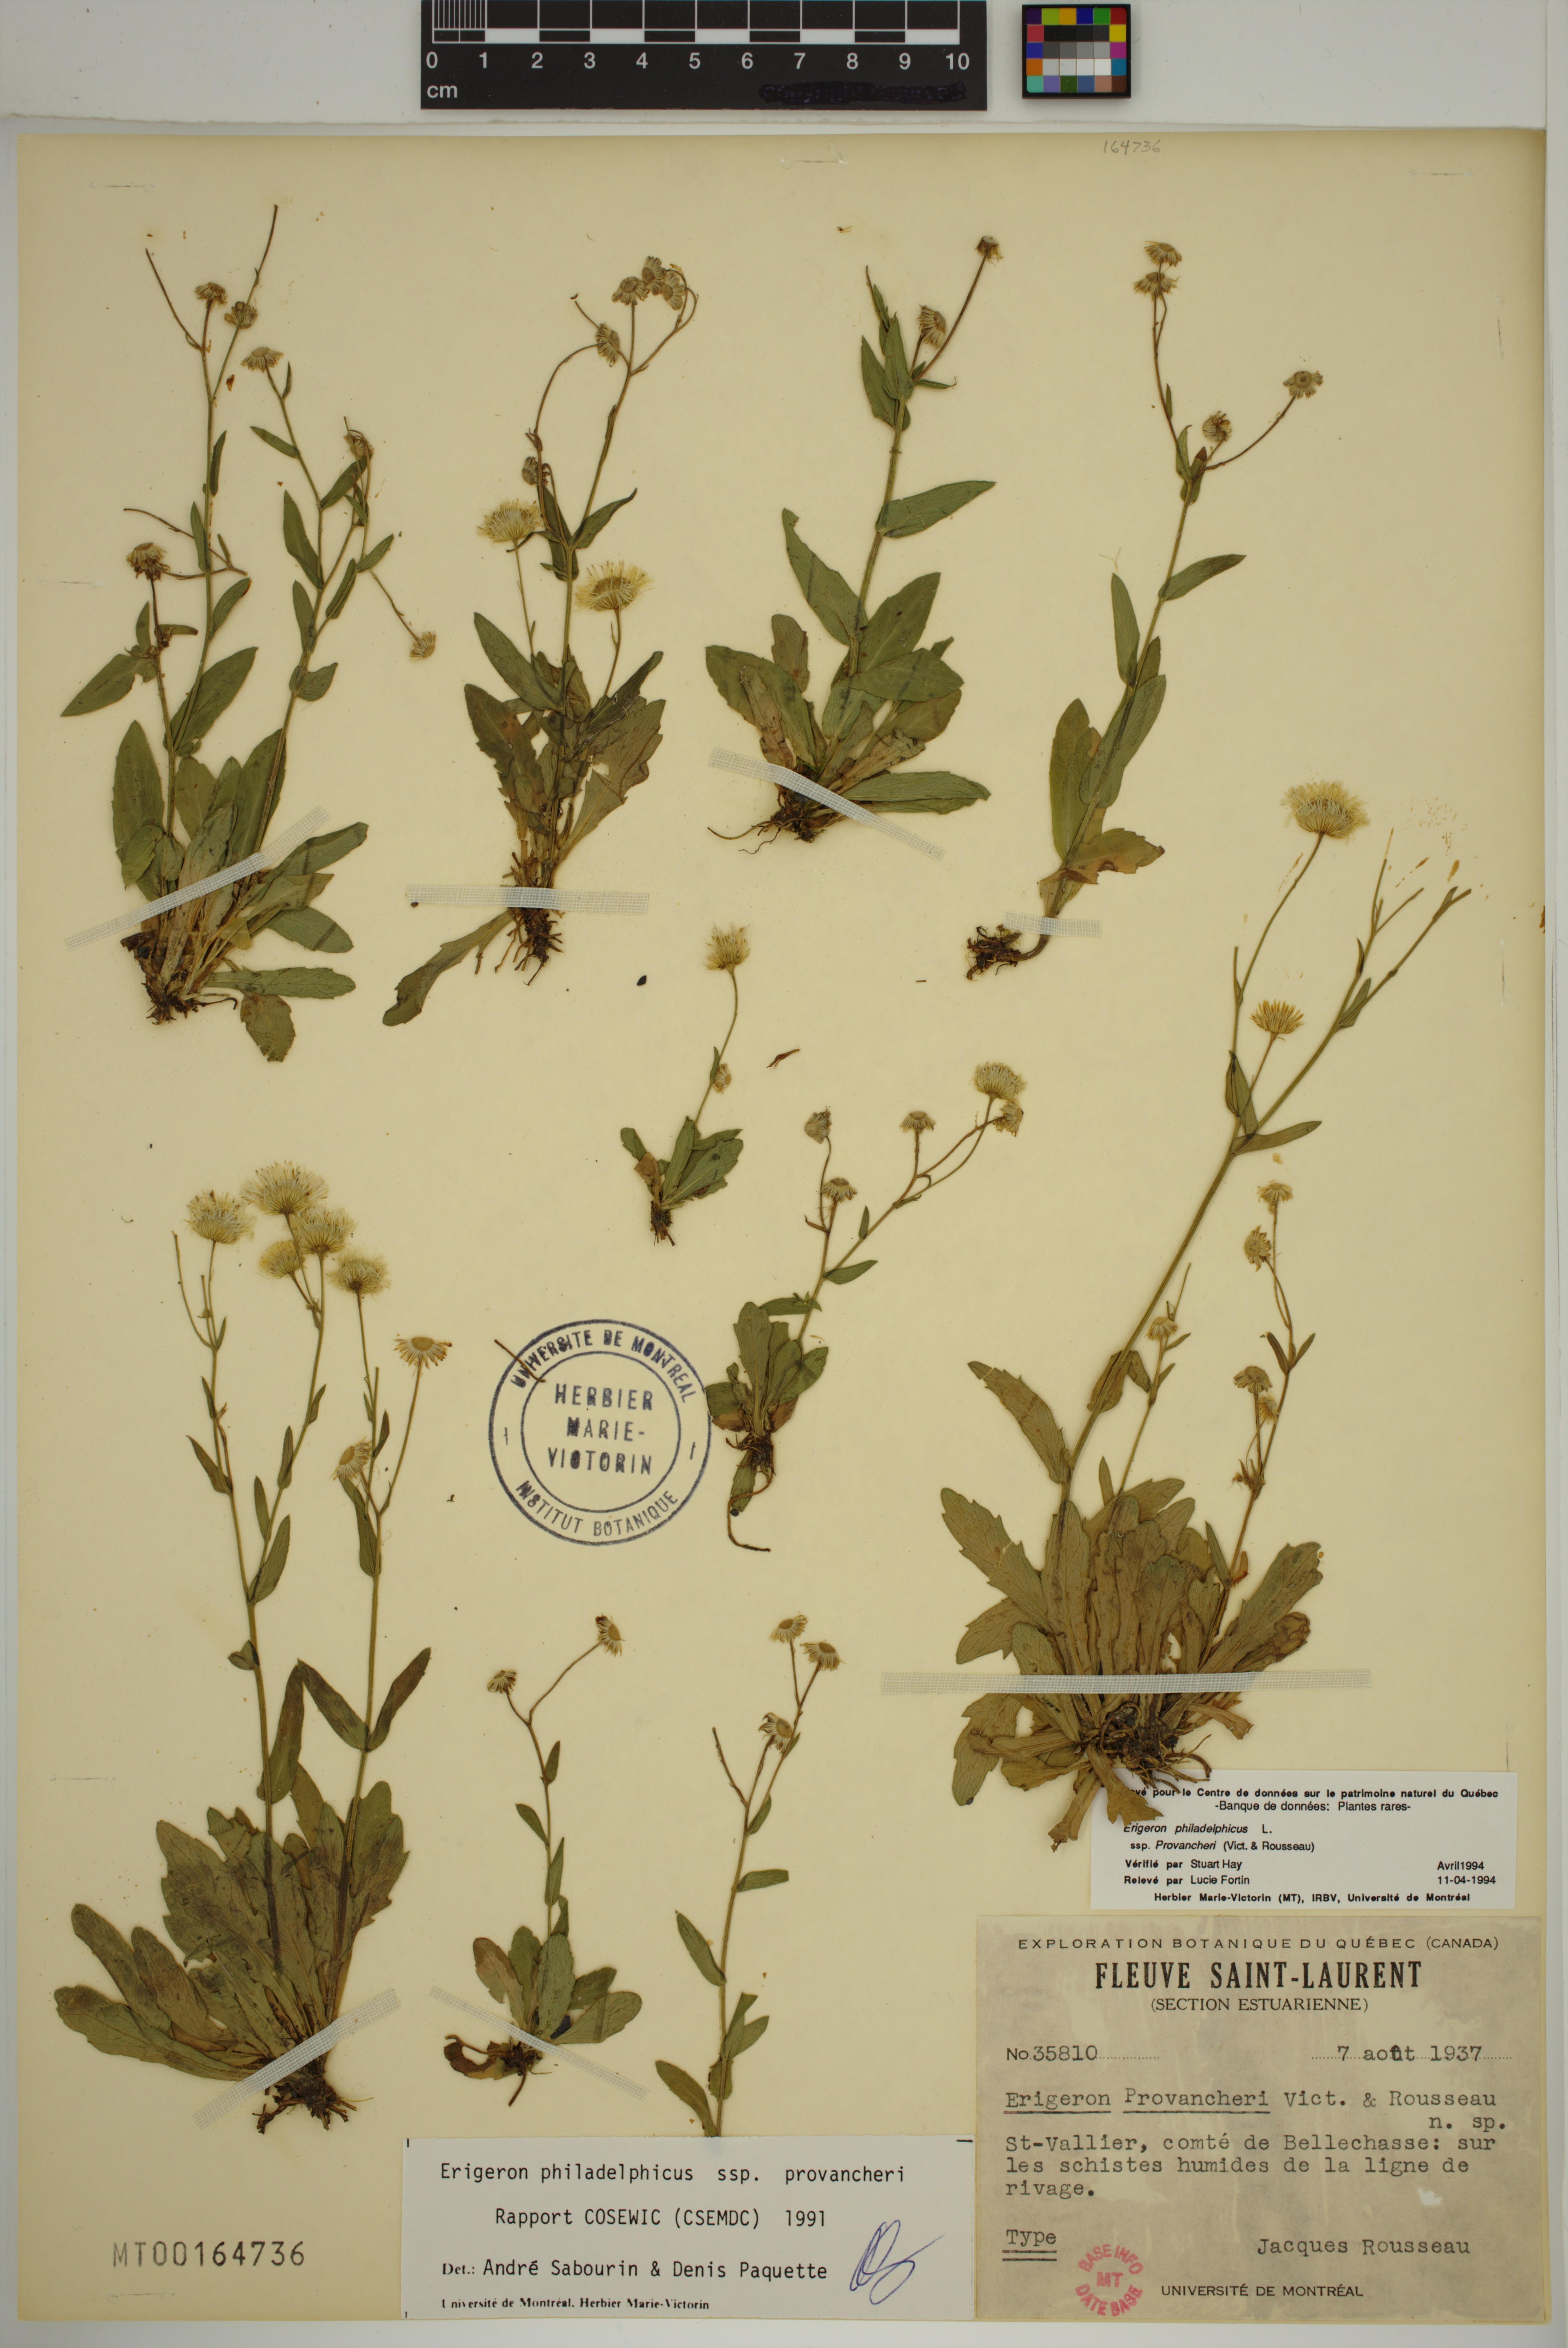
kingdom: Plantae
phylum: Tracheophyta
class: Magnoliopsida
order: Asterales
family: Asteraceae
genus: Erigeron
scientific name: Erigeron philadelphicus
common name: Robin's-plantain
